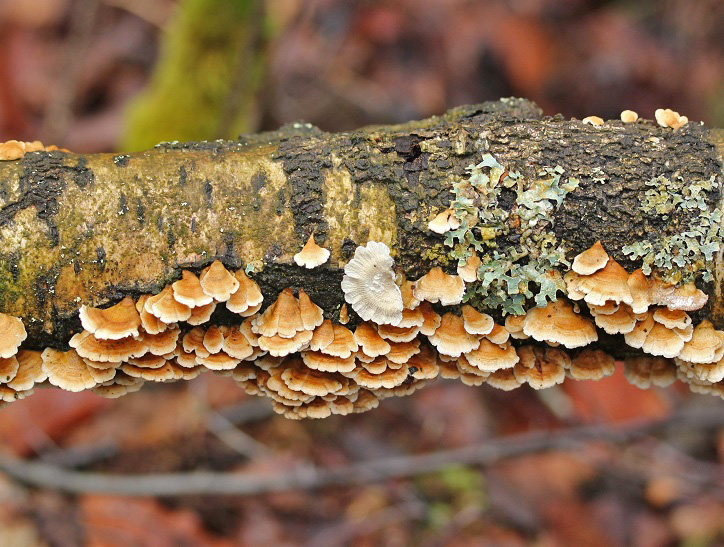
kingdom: Fungi
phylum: Basidiomycota
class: Agaricomycetes
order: Amylocorticiales
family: Amylocorticiaceae
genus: Plicaturopsis
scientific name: Plicaturopsis crispa
